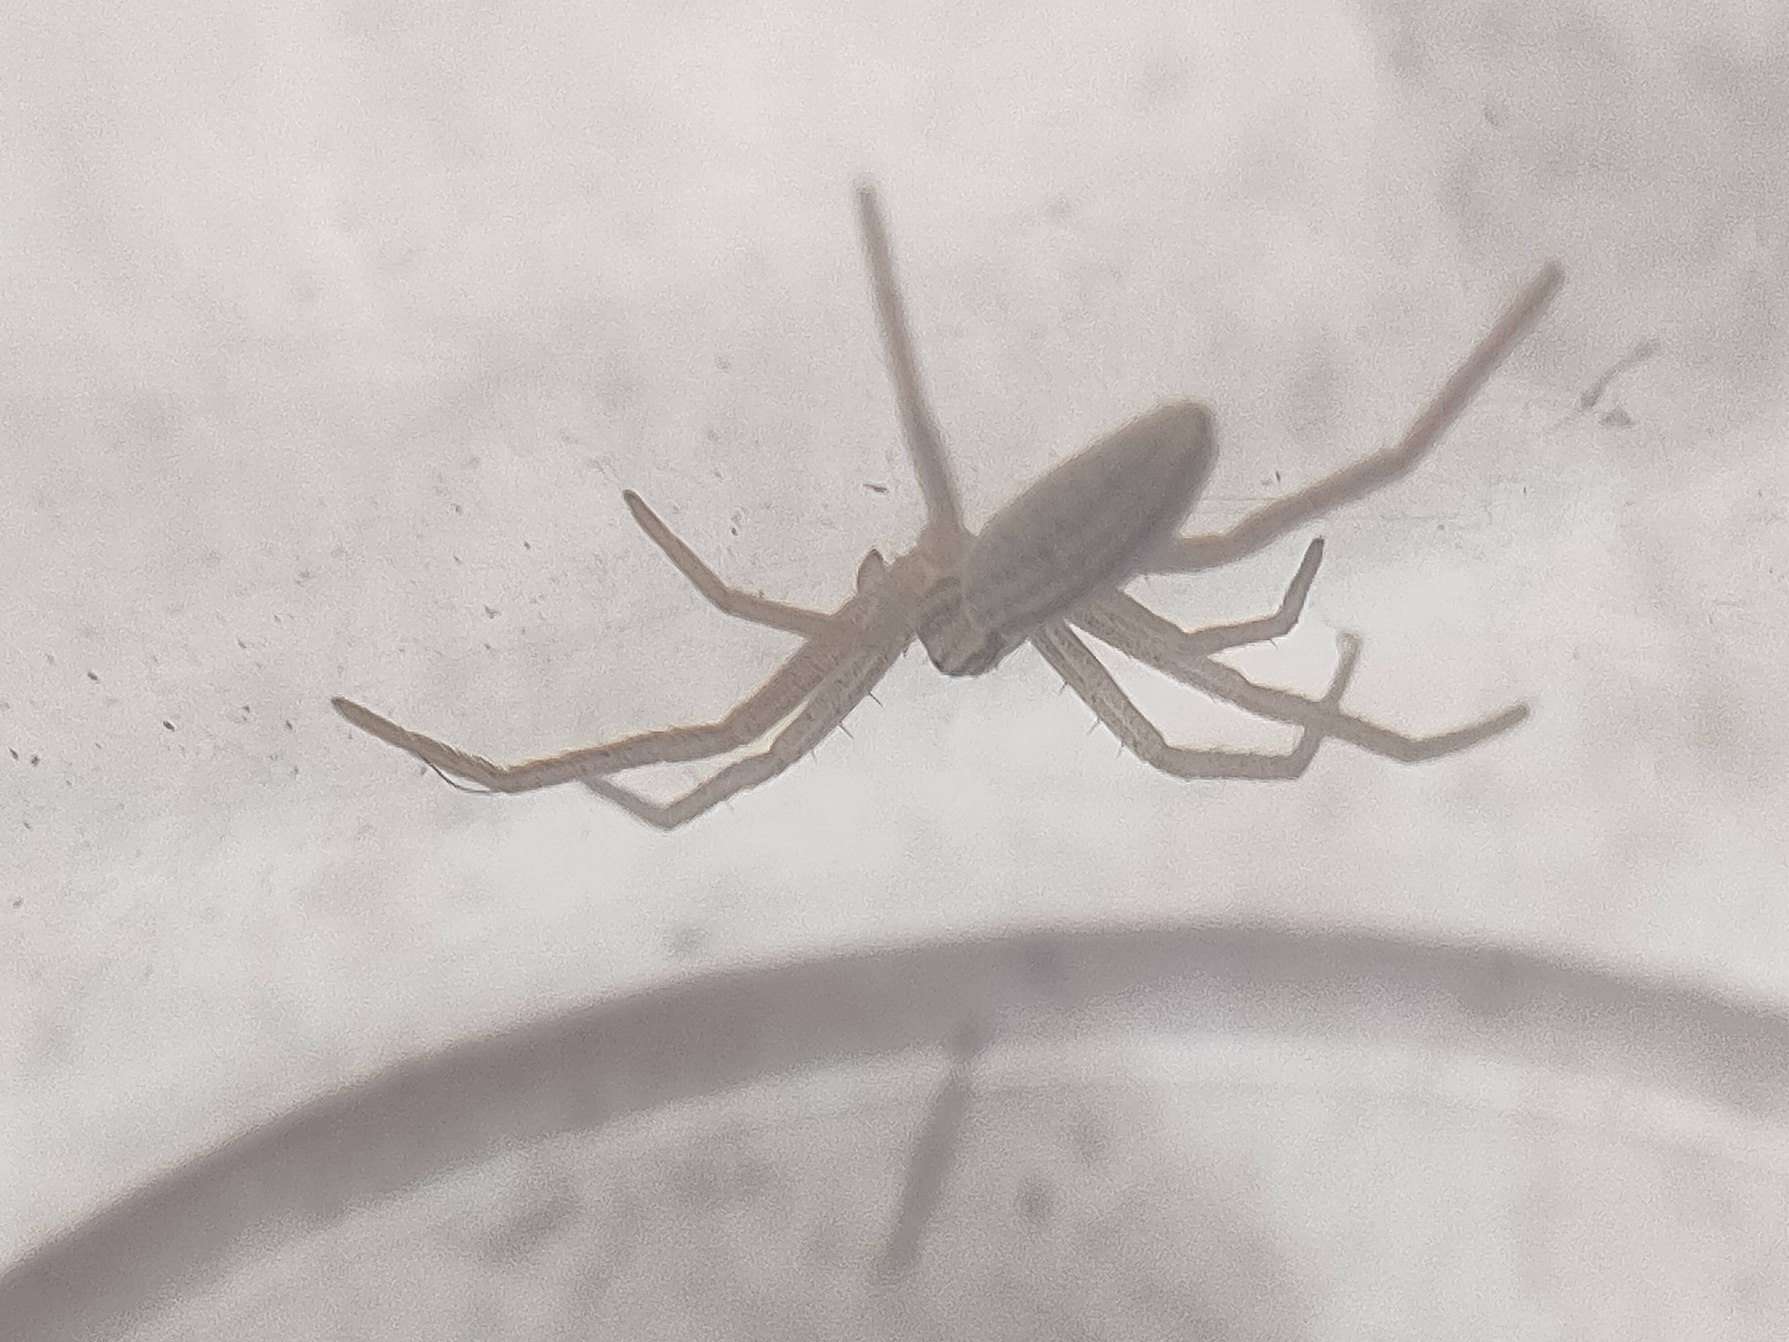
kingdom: Animalia
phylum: Arthropoda
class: Arachnida
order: Araneae
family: Philodromidae
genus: Tibellus
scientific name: Tibellus
